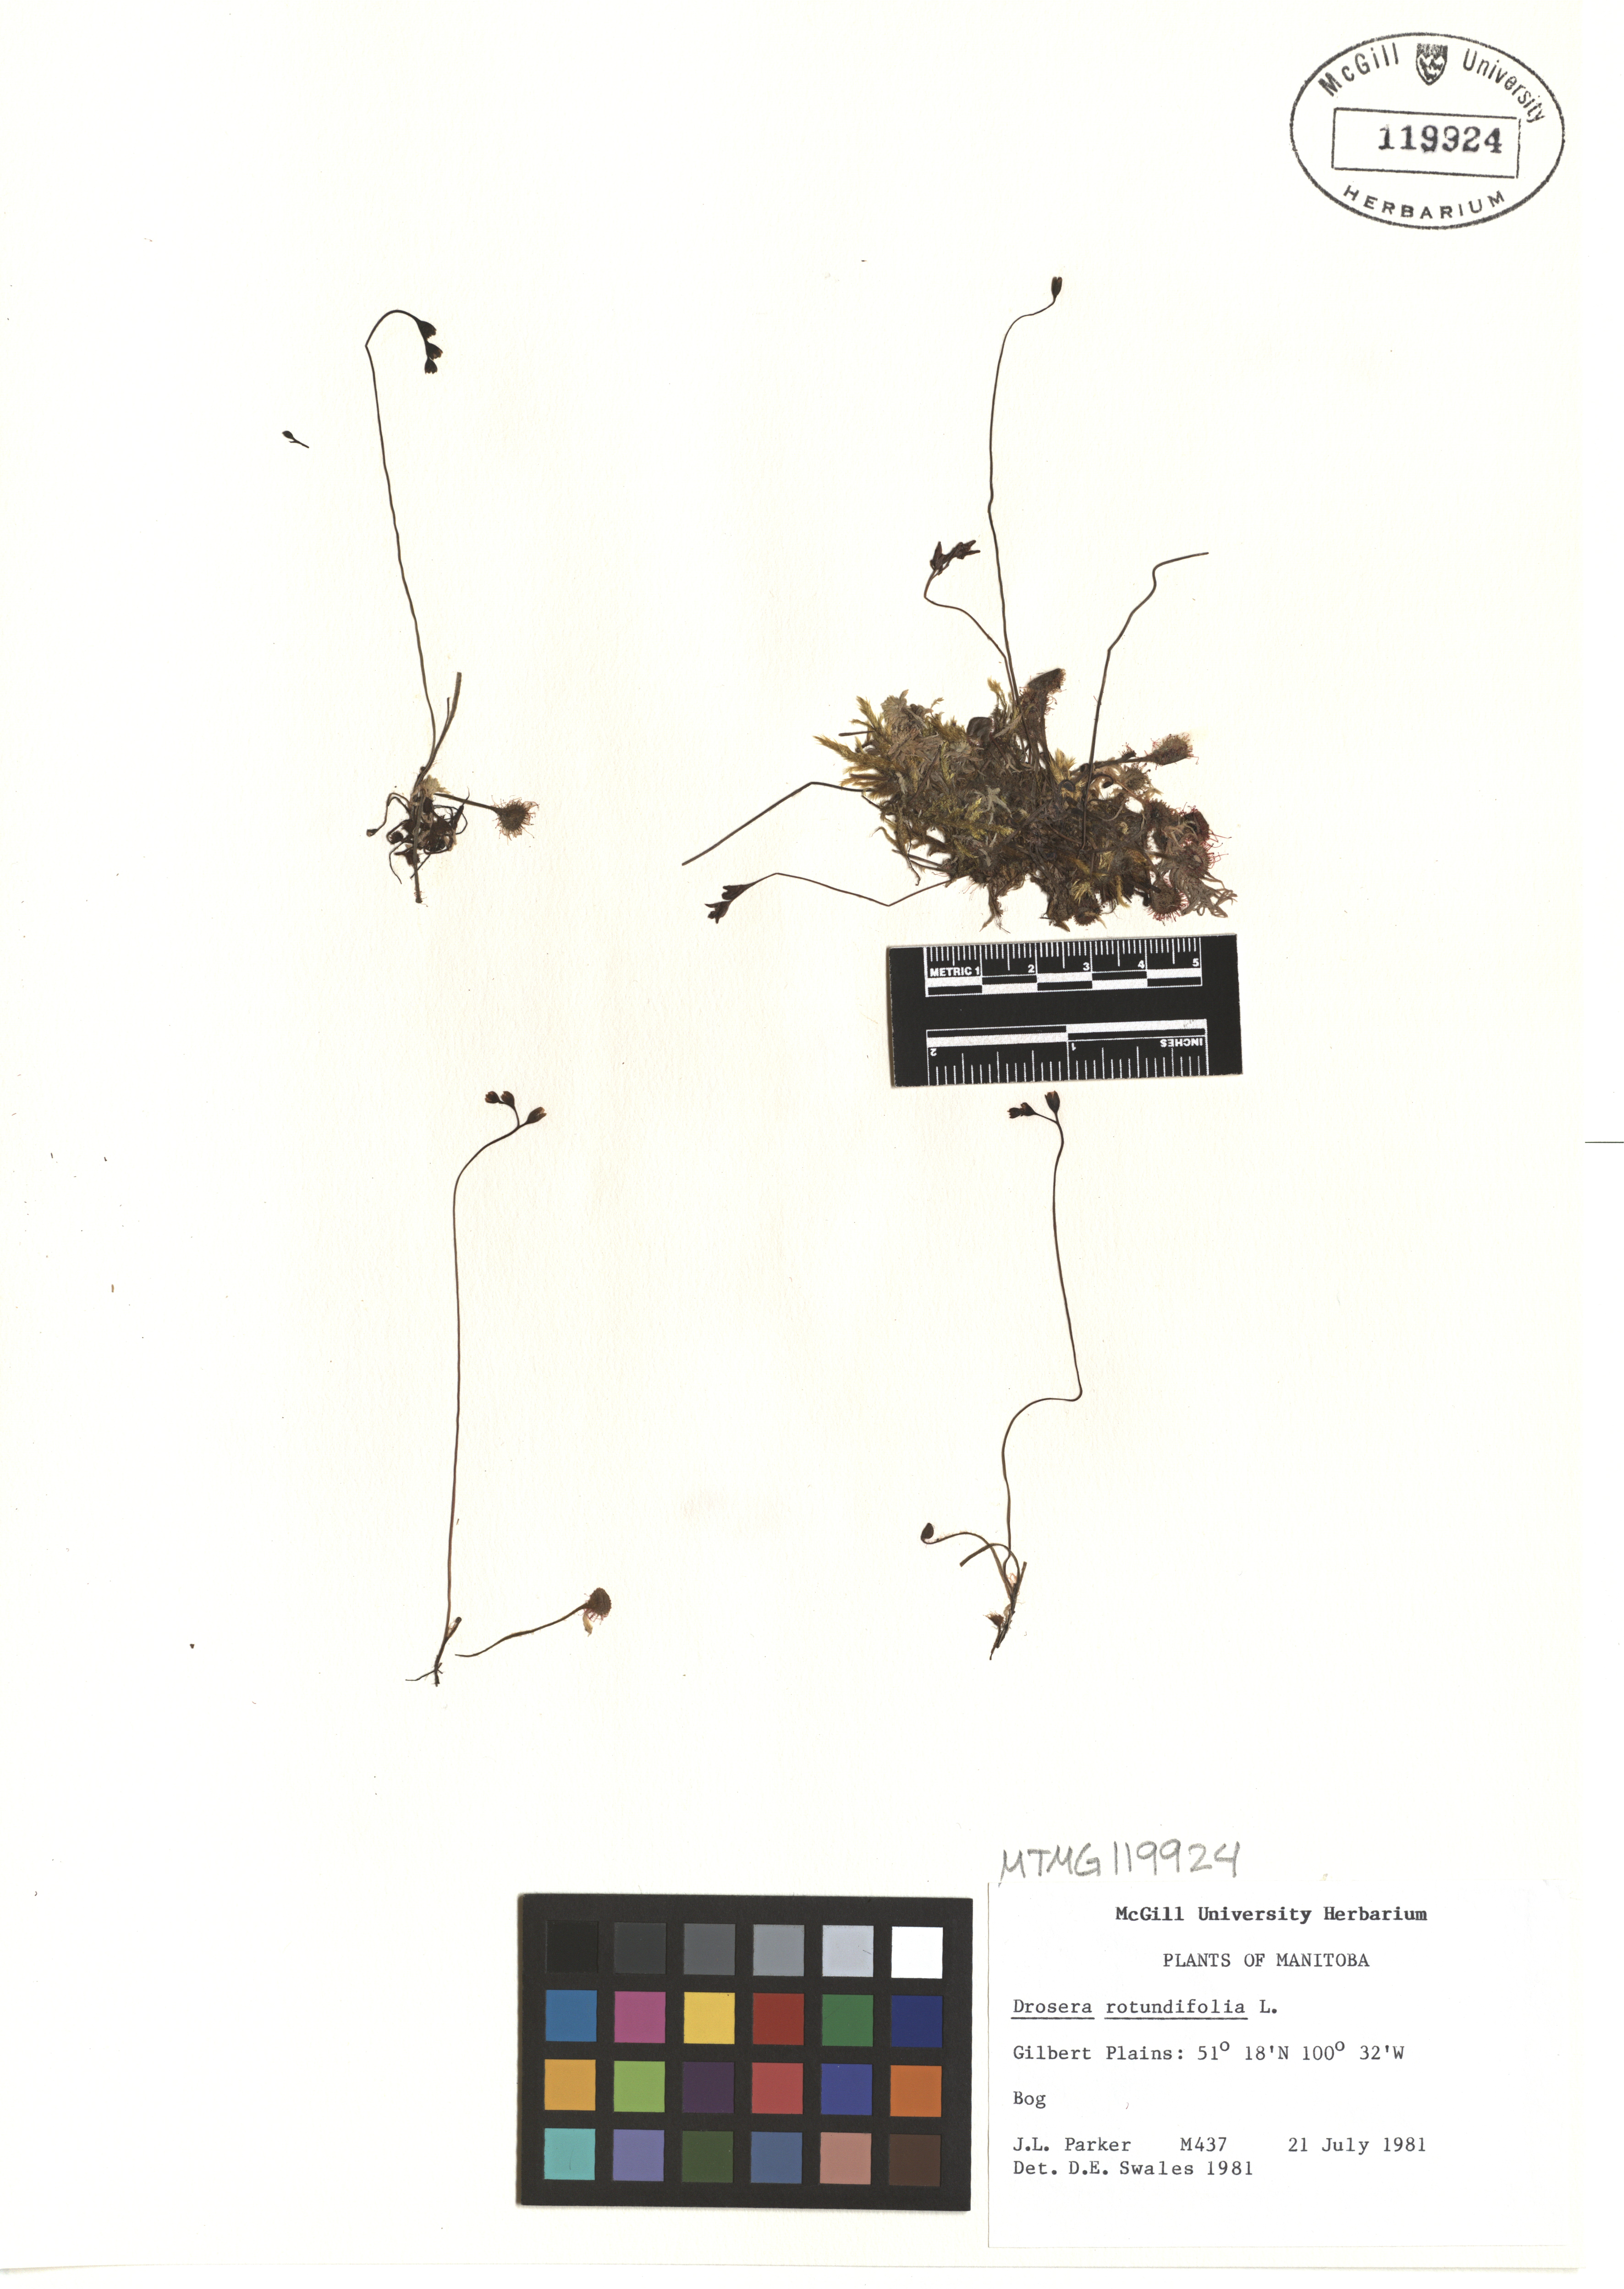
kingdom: Plantae
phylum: Tracheophyta
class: Magnoliopsida
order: Caryophyllales
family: Droseraceae
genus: Drosera
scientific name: Drosera rotundifolia
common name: Round-leaved sundew
